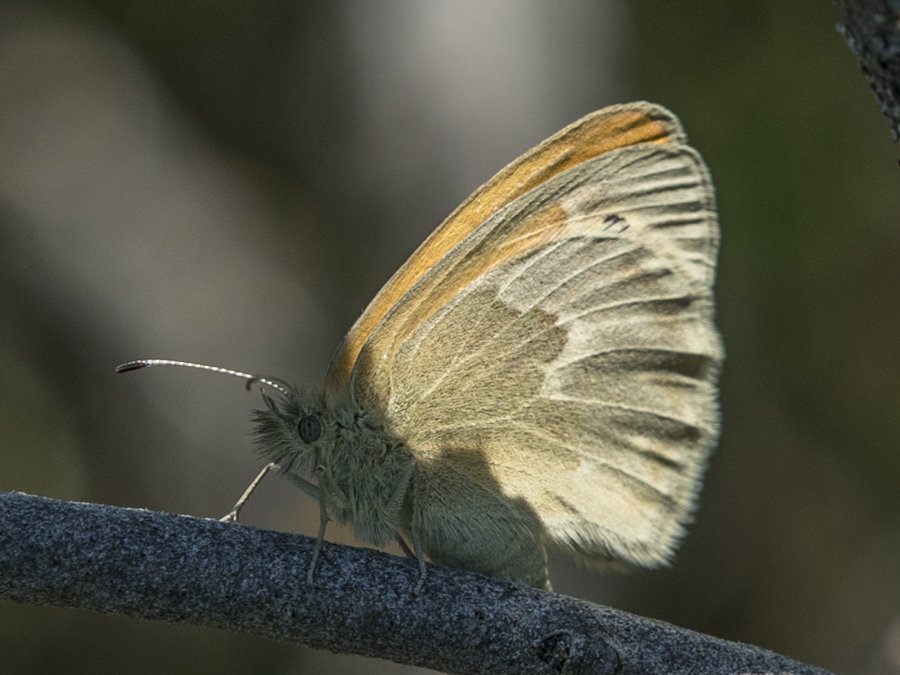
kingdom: Animalia
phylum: Arthropoda
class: Insecta
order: Lepidoptera
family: Nymphalidae
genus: Coenonympha
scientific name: Coenonympha tullia
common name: Large Heath
